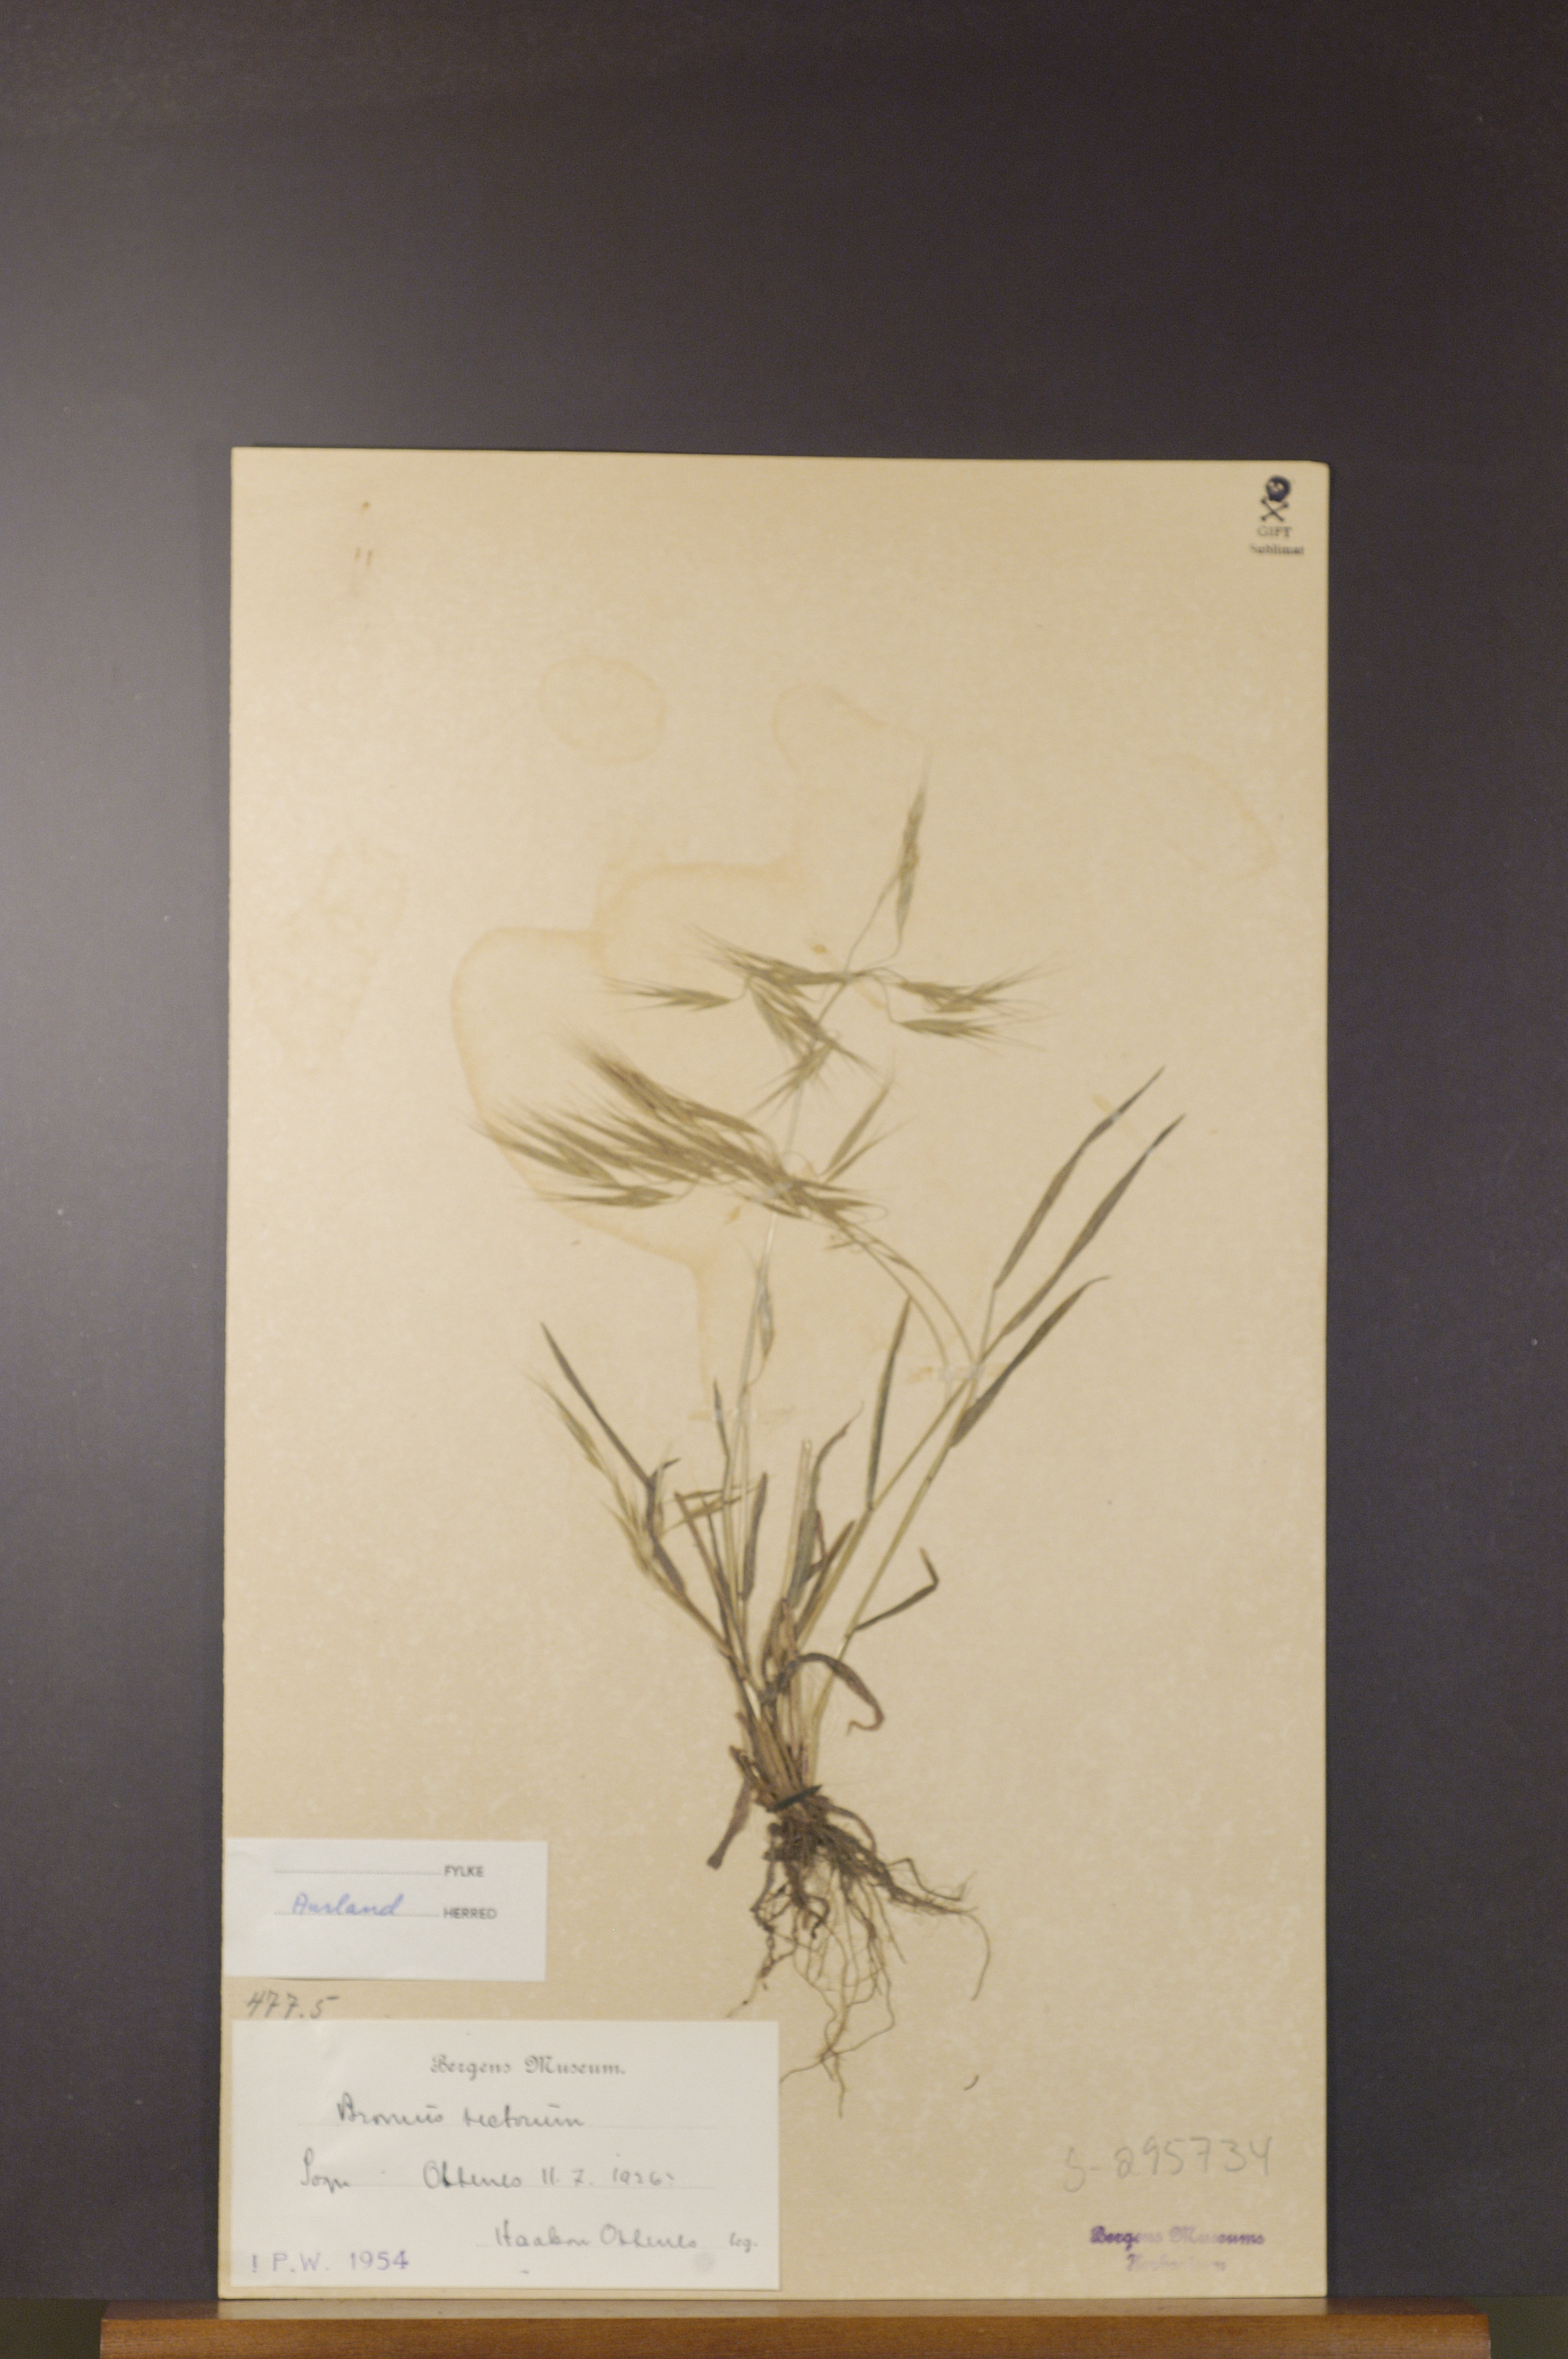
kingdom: Plantae
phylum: Tracheophyta
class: Liliopsida
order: Poales
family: Poaceae
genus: Bromus
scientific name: Bromus tectorum
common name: Cheatgrass
